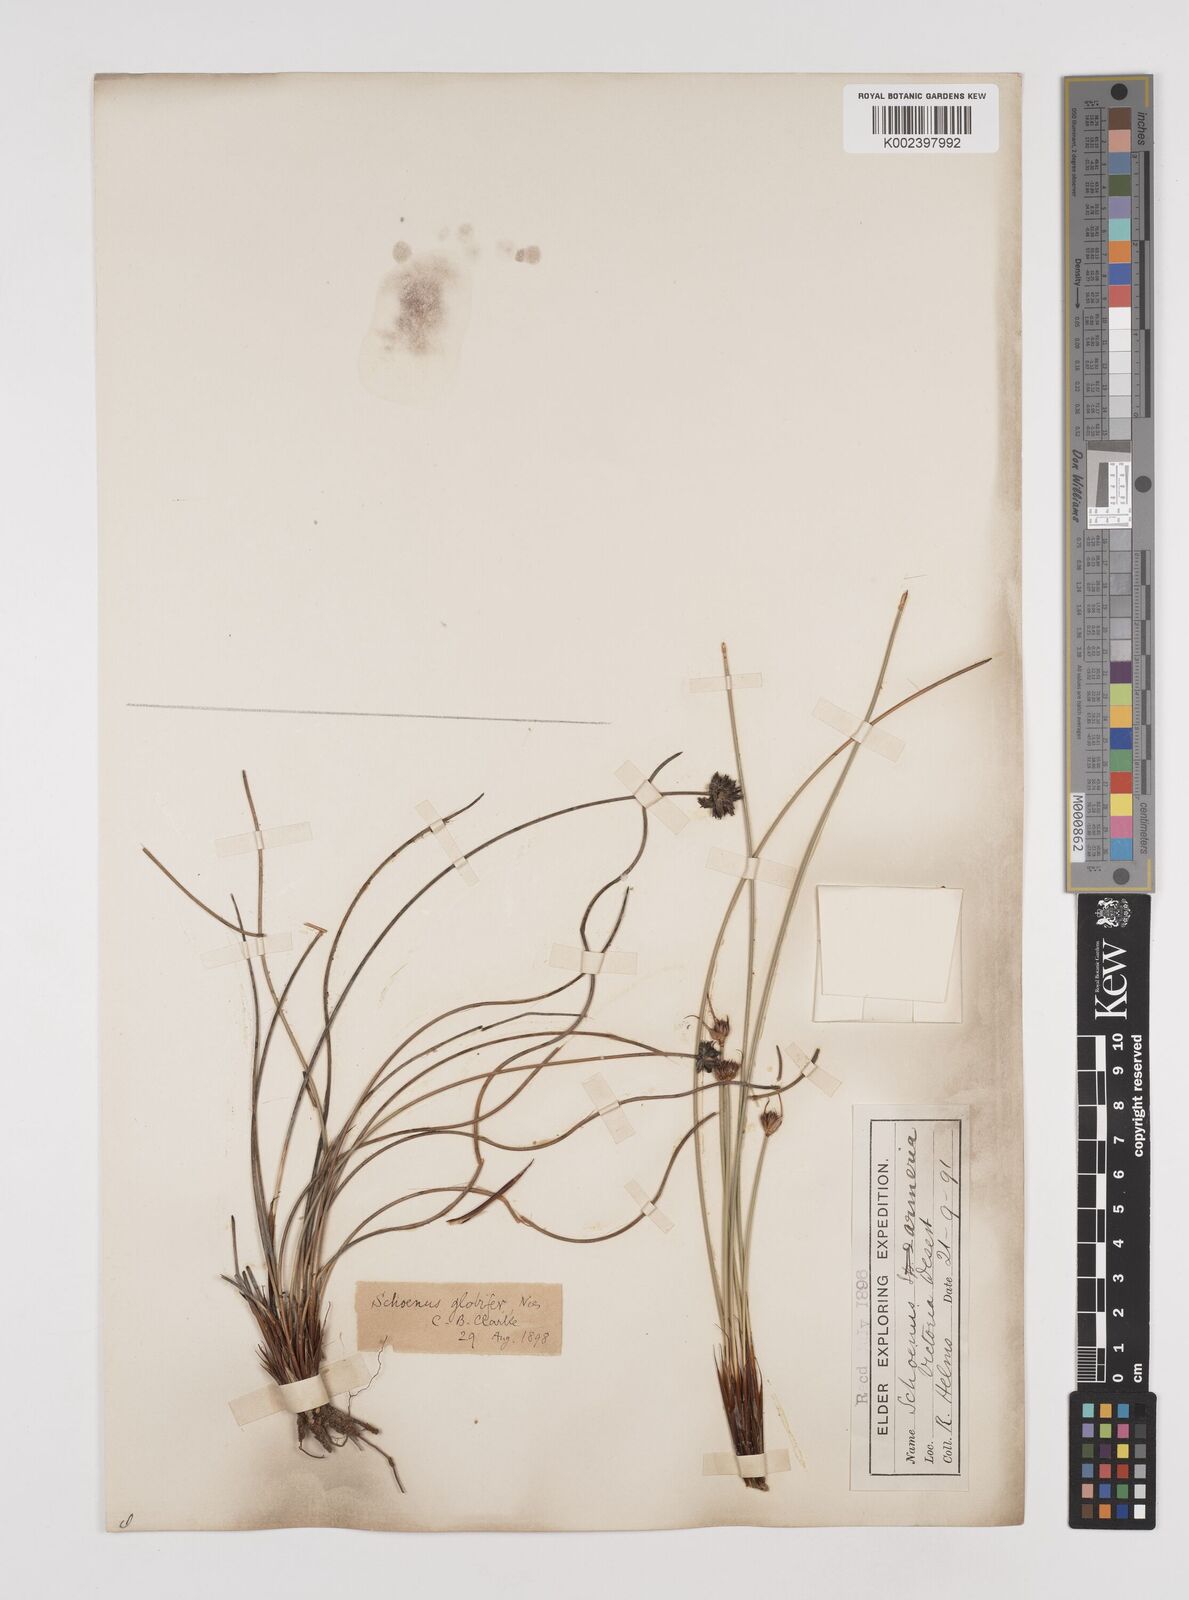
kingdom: Plantae
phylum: Tracheophyta
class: Liliopsida
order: Poales
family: Cyperaceae
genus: Schoenus
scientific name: Schoenus globifer
